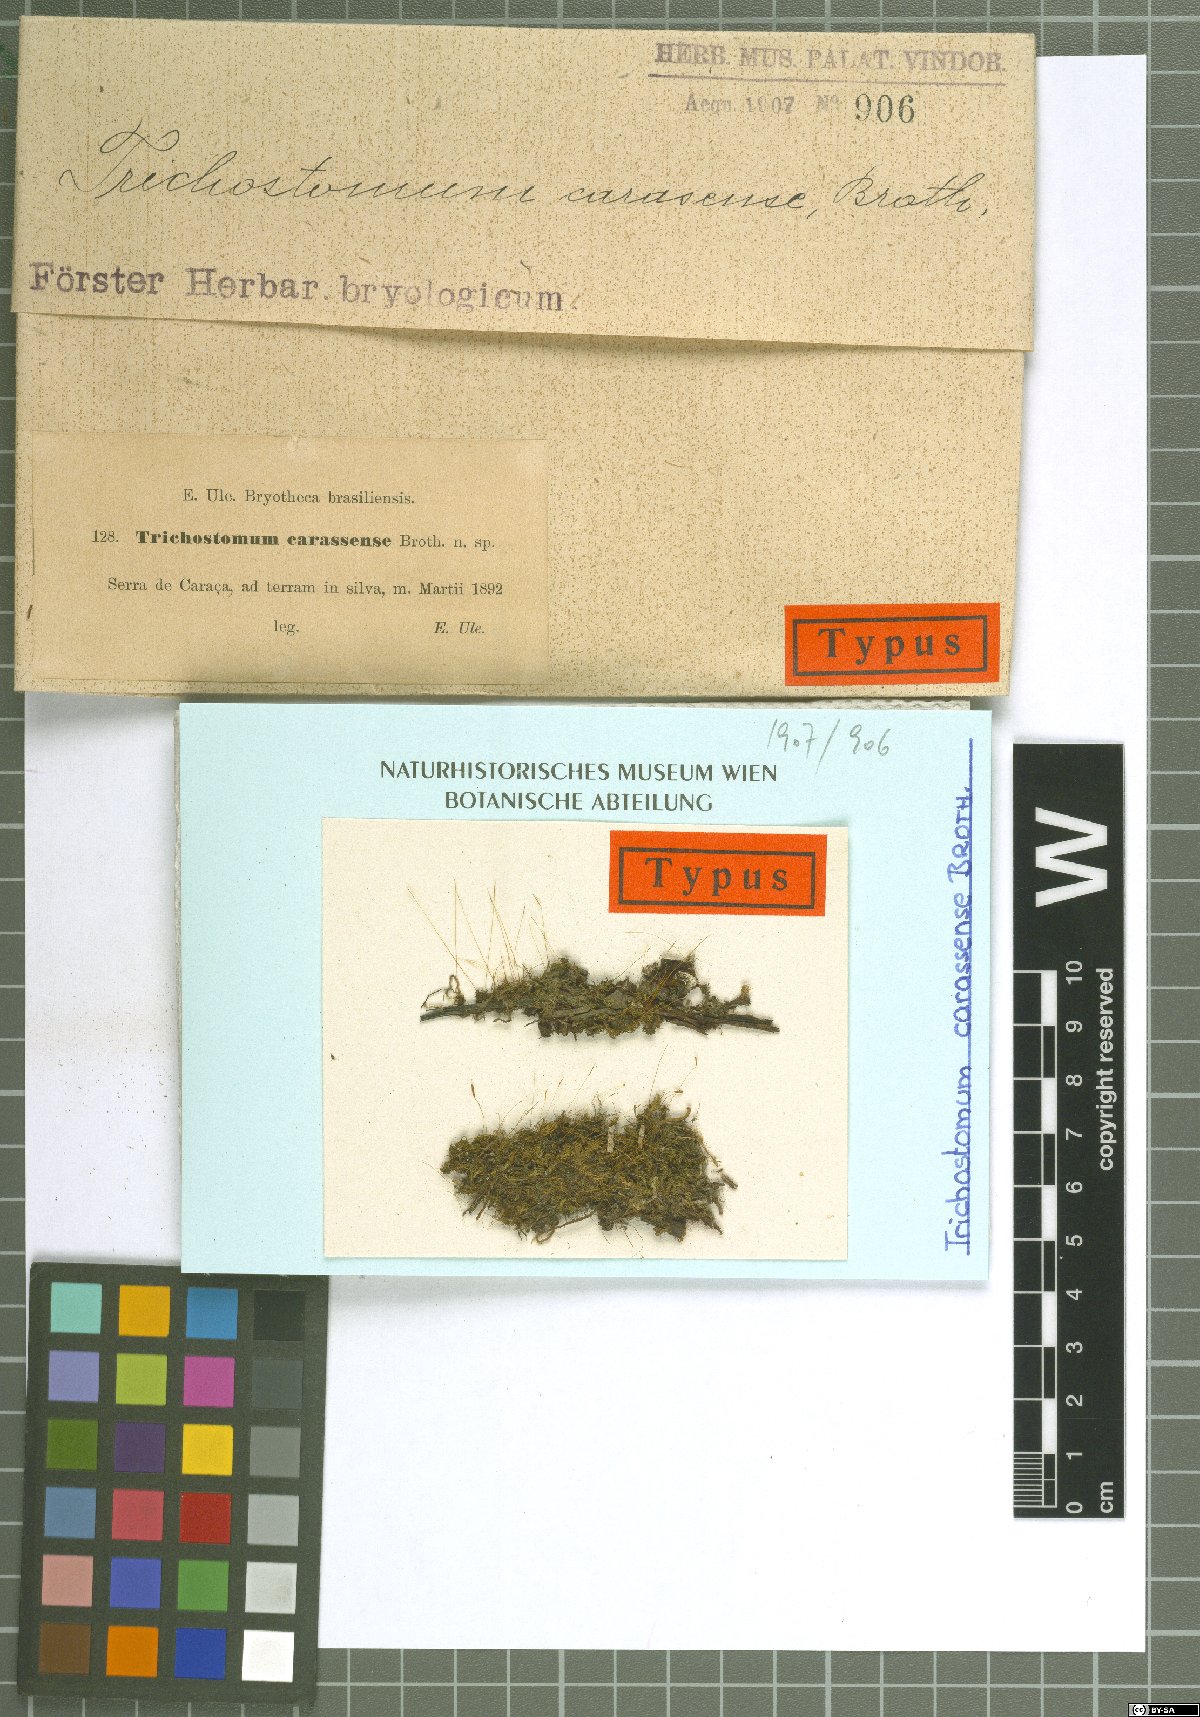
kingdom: Plantae
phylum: Bryophyta
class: Bryopsida
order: Pottiales
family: Pottiaceae
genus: Trichostomum
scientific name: Trichostomum
